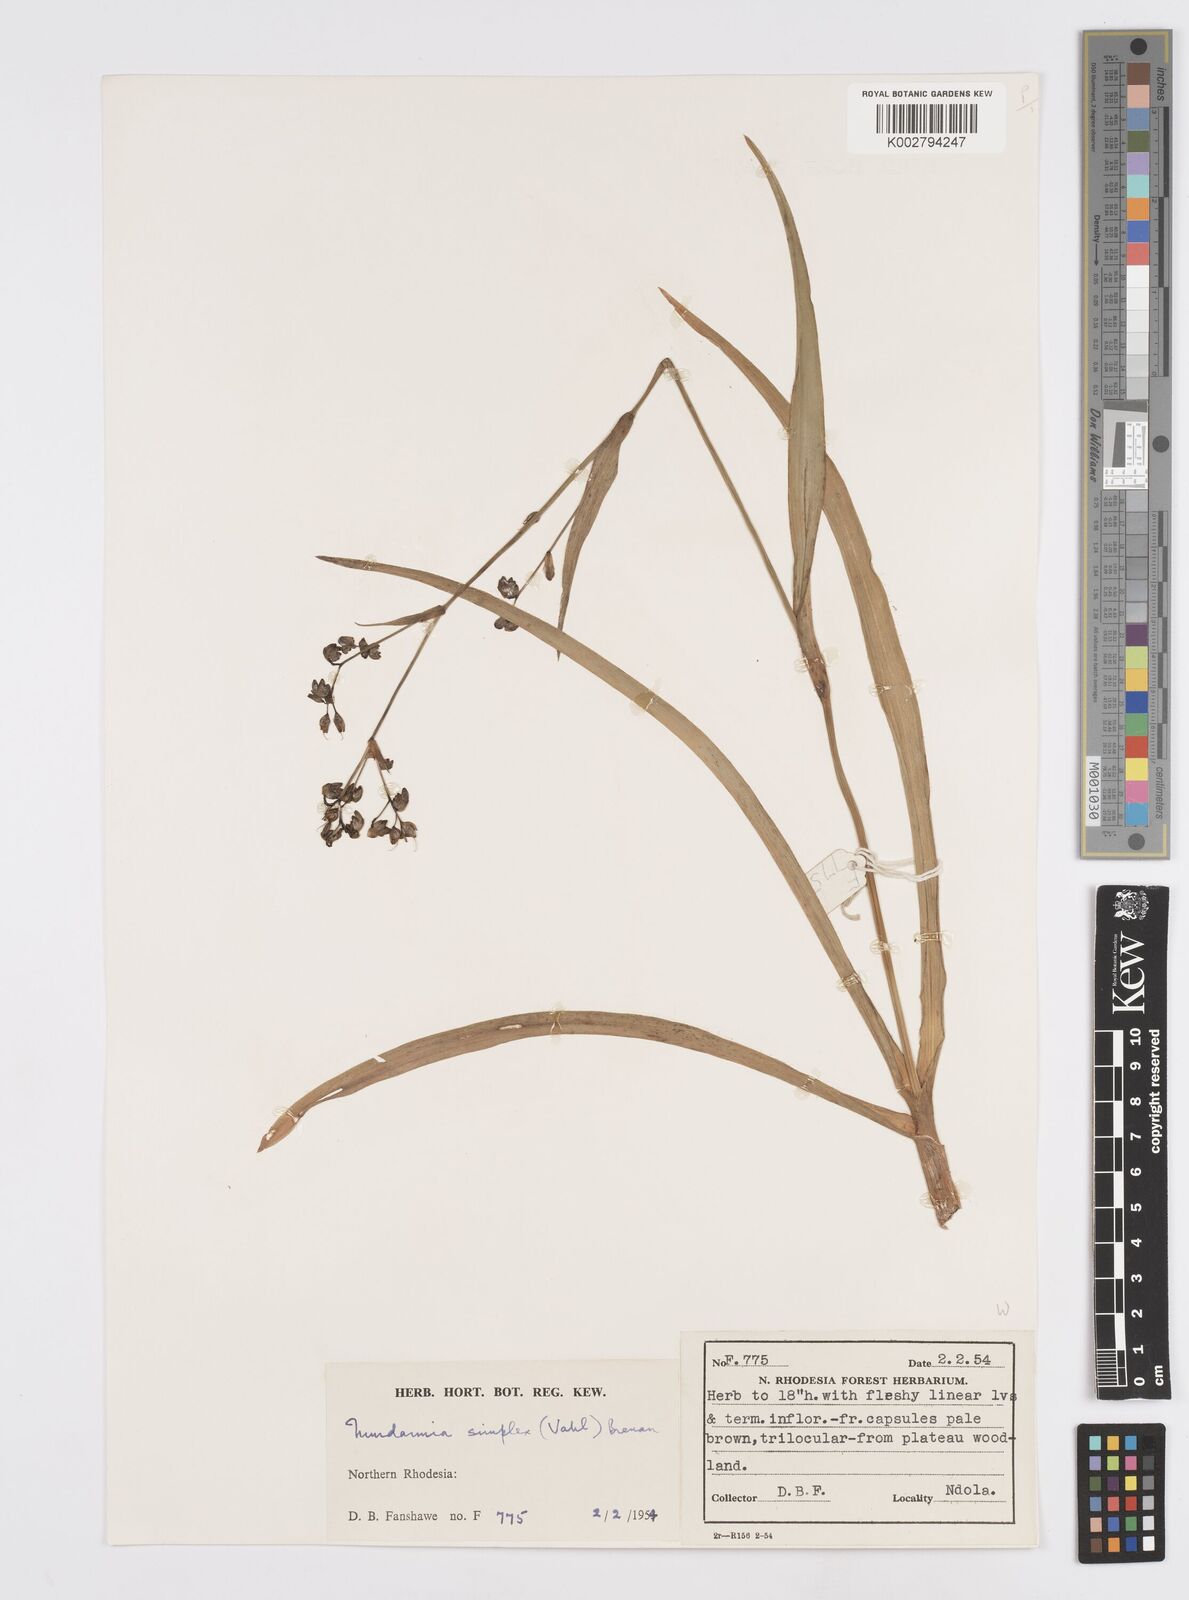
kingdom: Plantae
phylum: Tracheophyta
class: Liliopsida
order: Commelinales
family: Commelinaceae
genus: Murdannia
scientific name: Murdannia simplex
